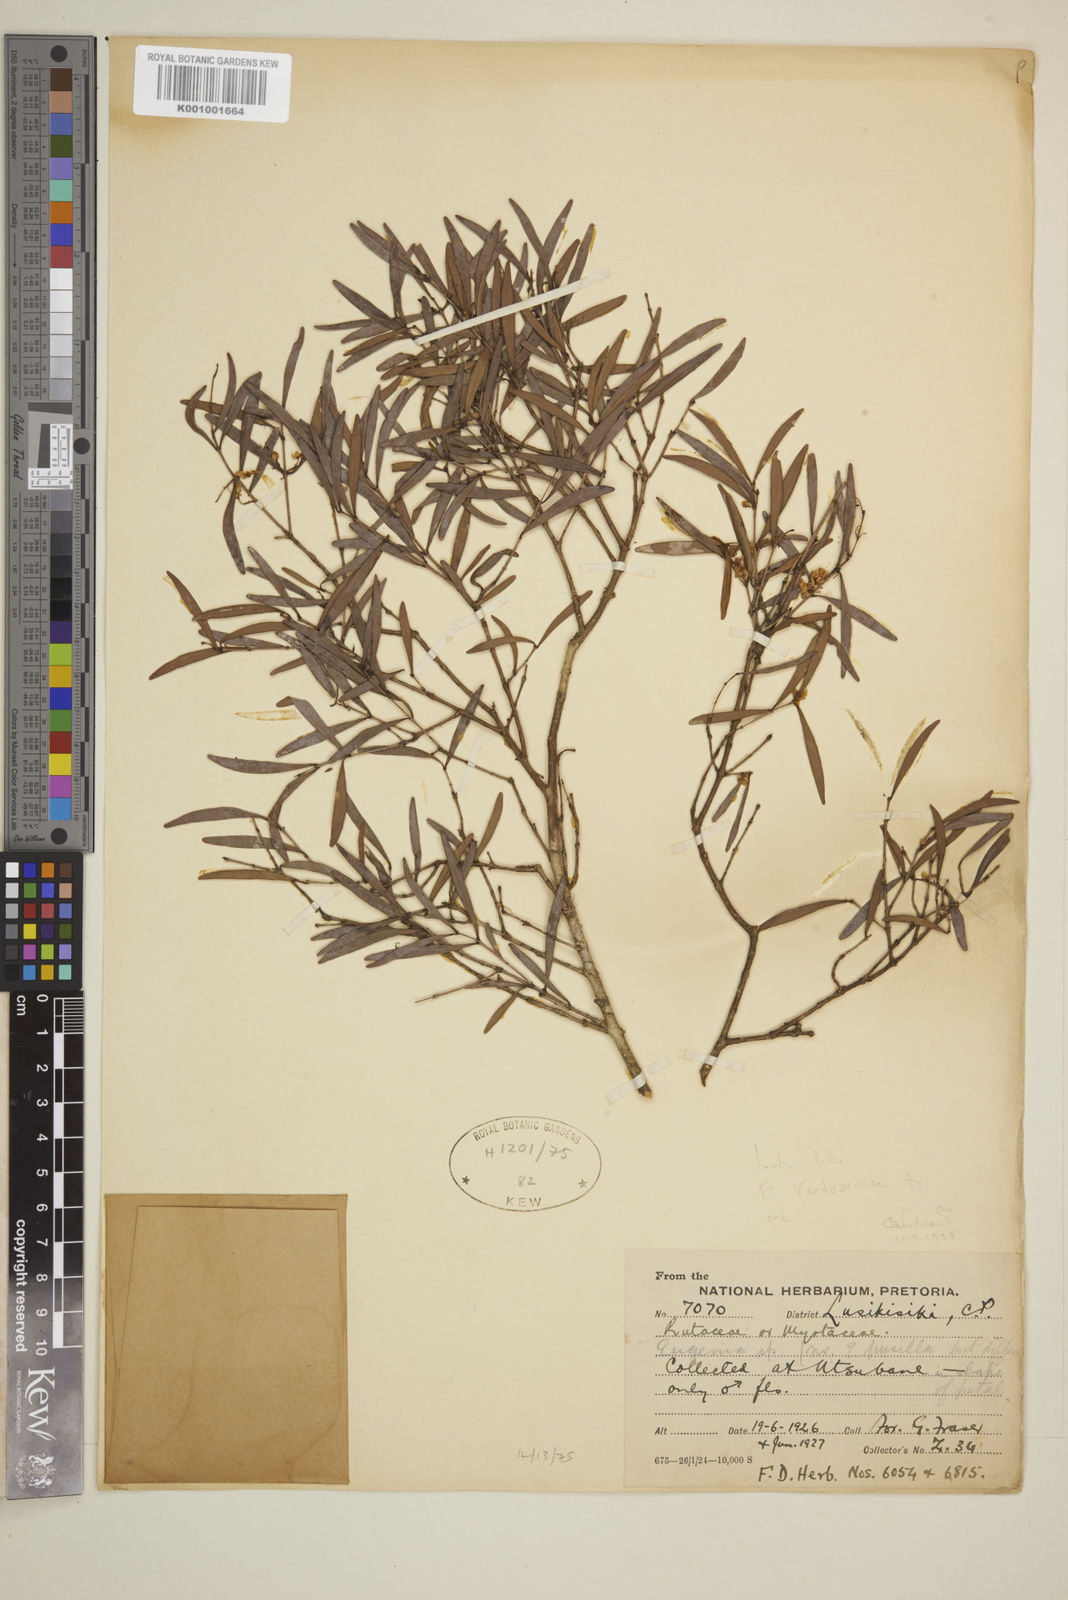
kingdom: Plantae
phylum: Tracheophyta
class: Magnoliopsida
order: Myrtales
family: Myrtaceae
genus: Eugenia
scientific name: Eugenia verdoorniae
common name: Small-leaved myrtle
